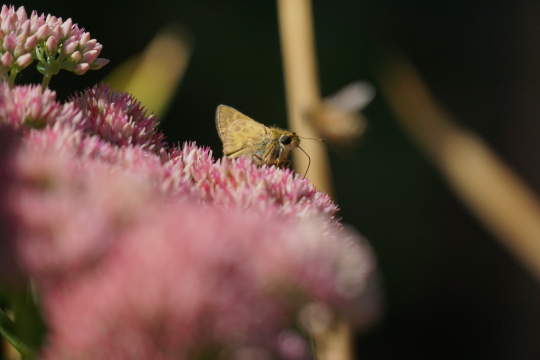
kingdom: Animalia
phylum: Arthropoda
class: Insecta
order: Lepidoptera
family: Hesperiidae
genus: Atalopedes
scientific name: Atalopedes campestris
